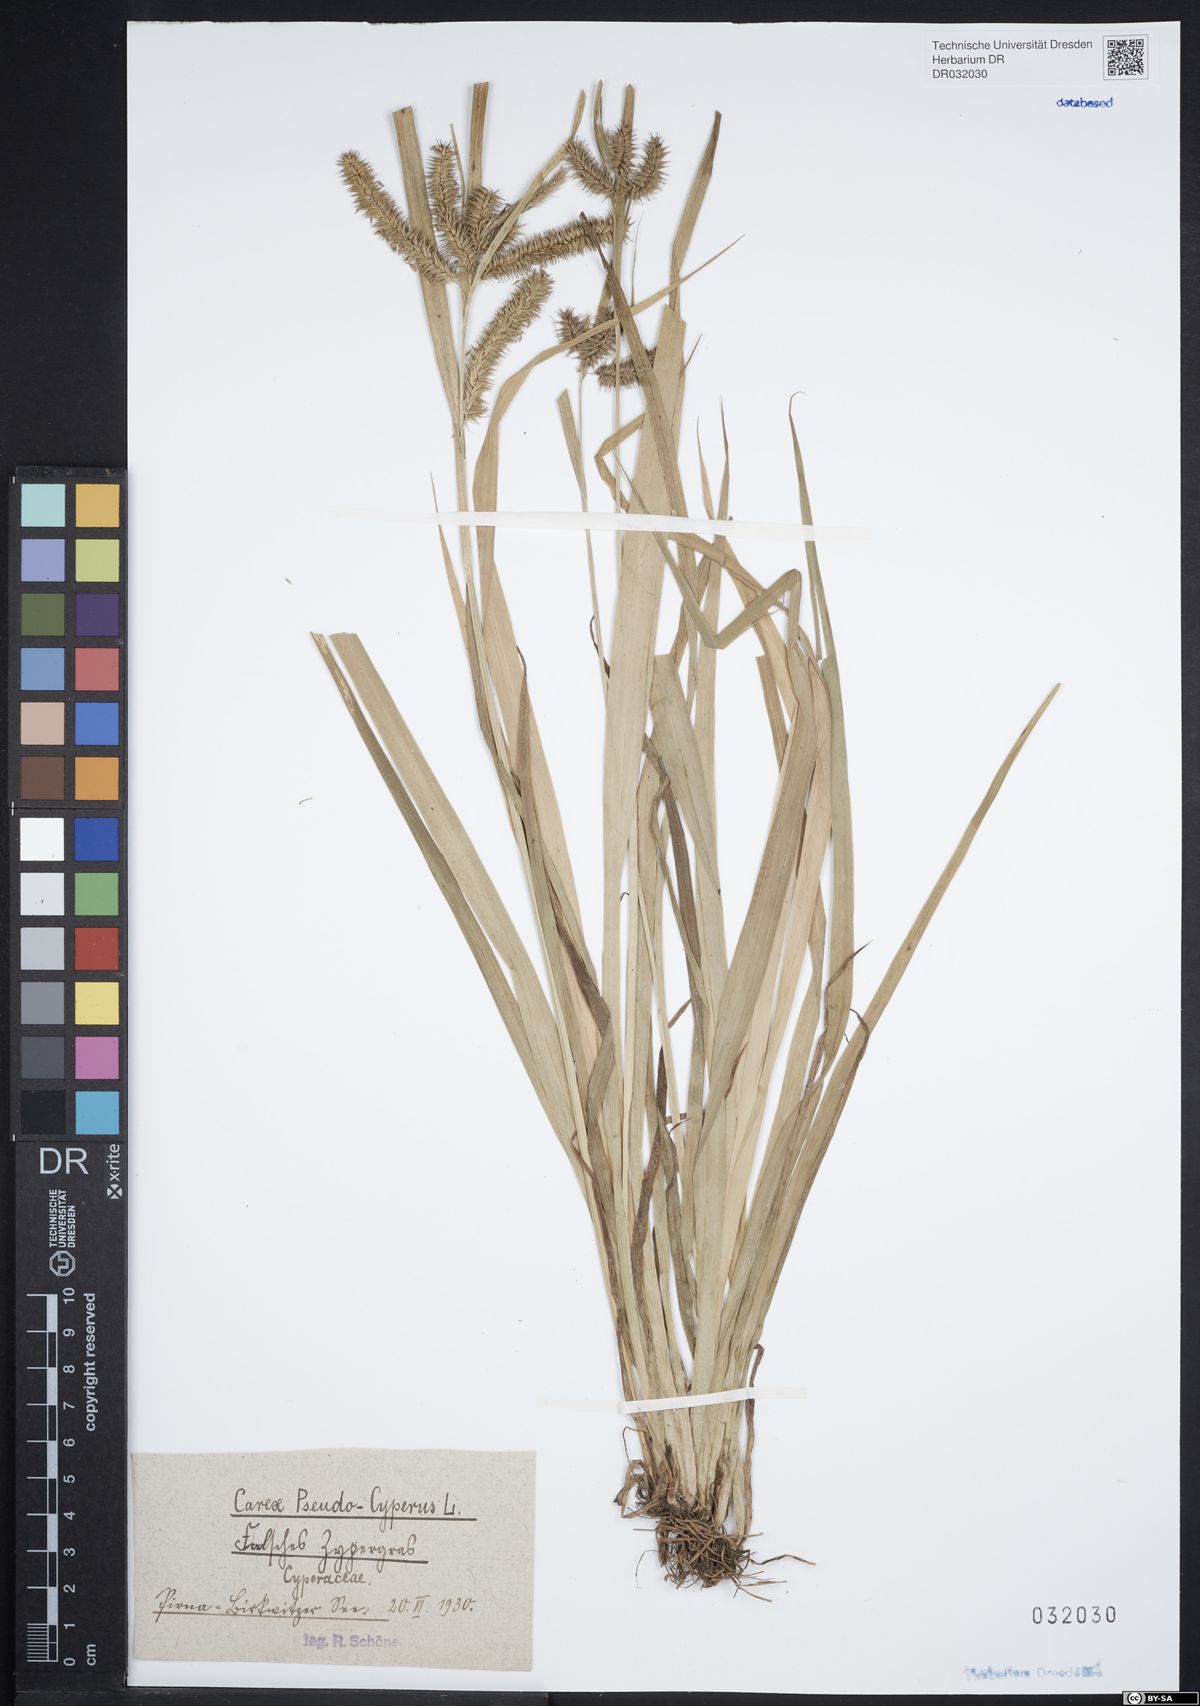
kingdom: Plantae
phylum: Tracheophyta
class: Liliopsida
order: Poales
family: Cyperaceae
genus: Carex
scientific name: Carex pseudocyperus
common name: Cyperus sedge
